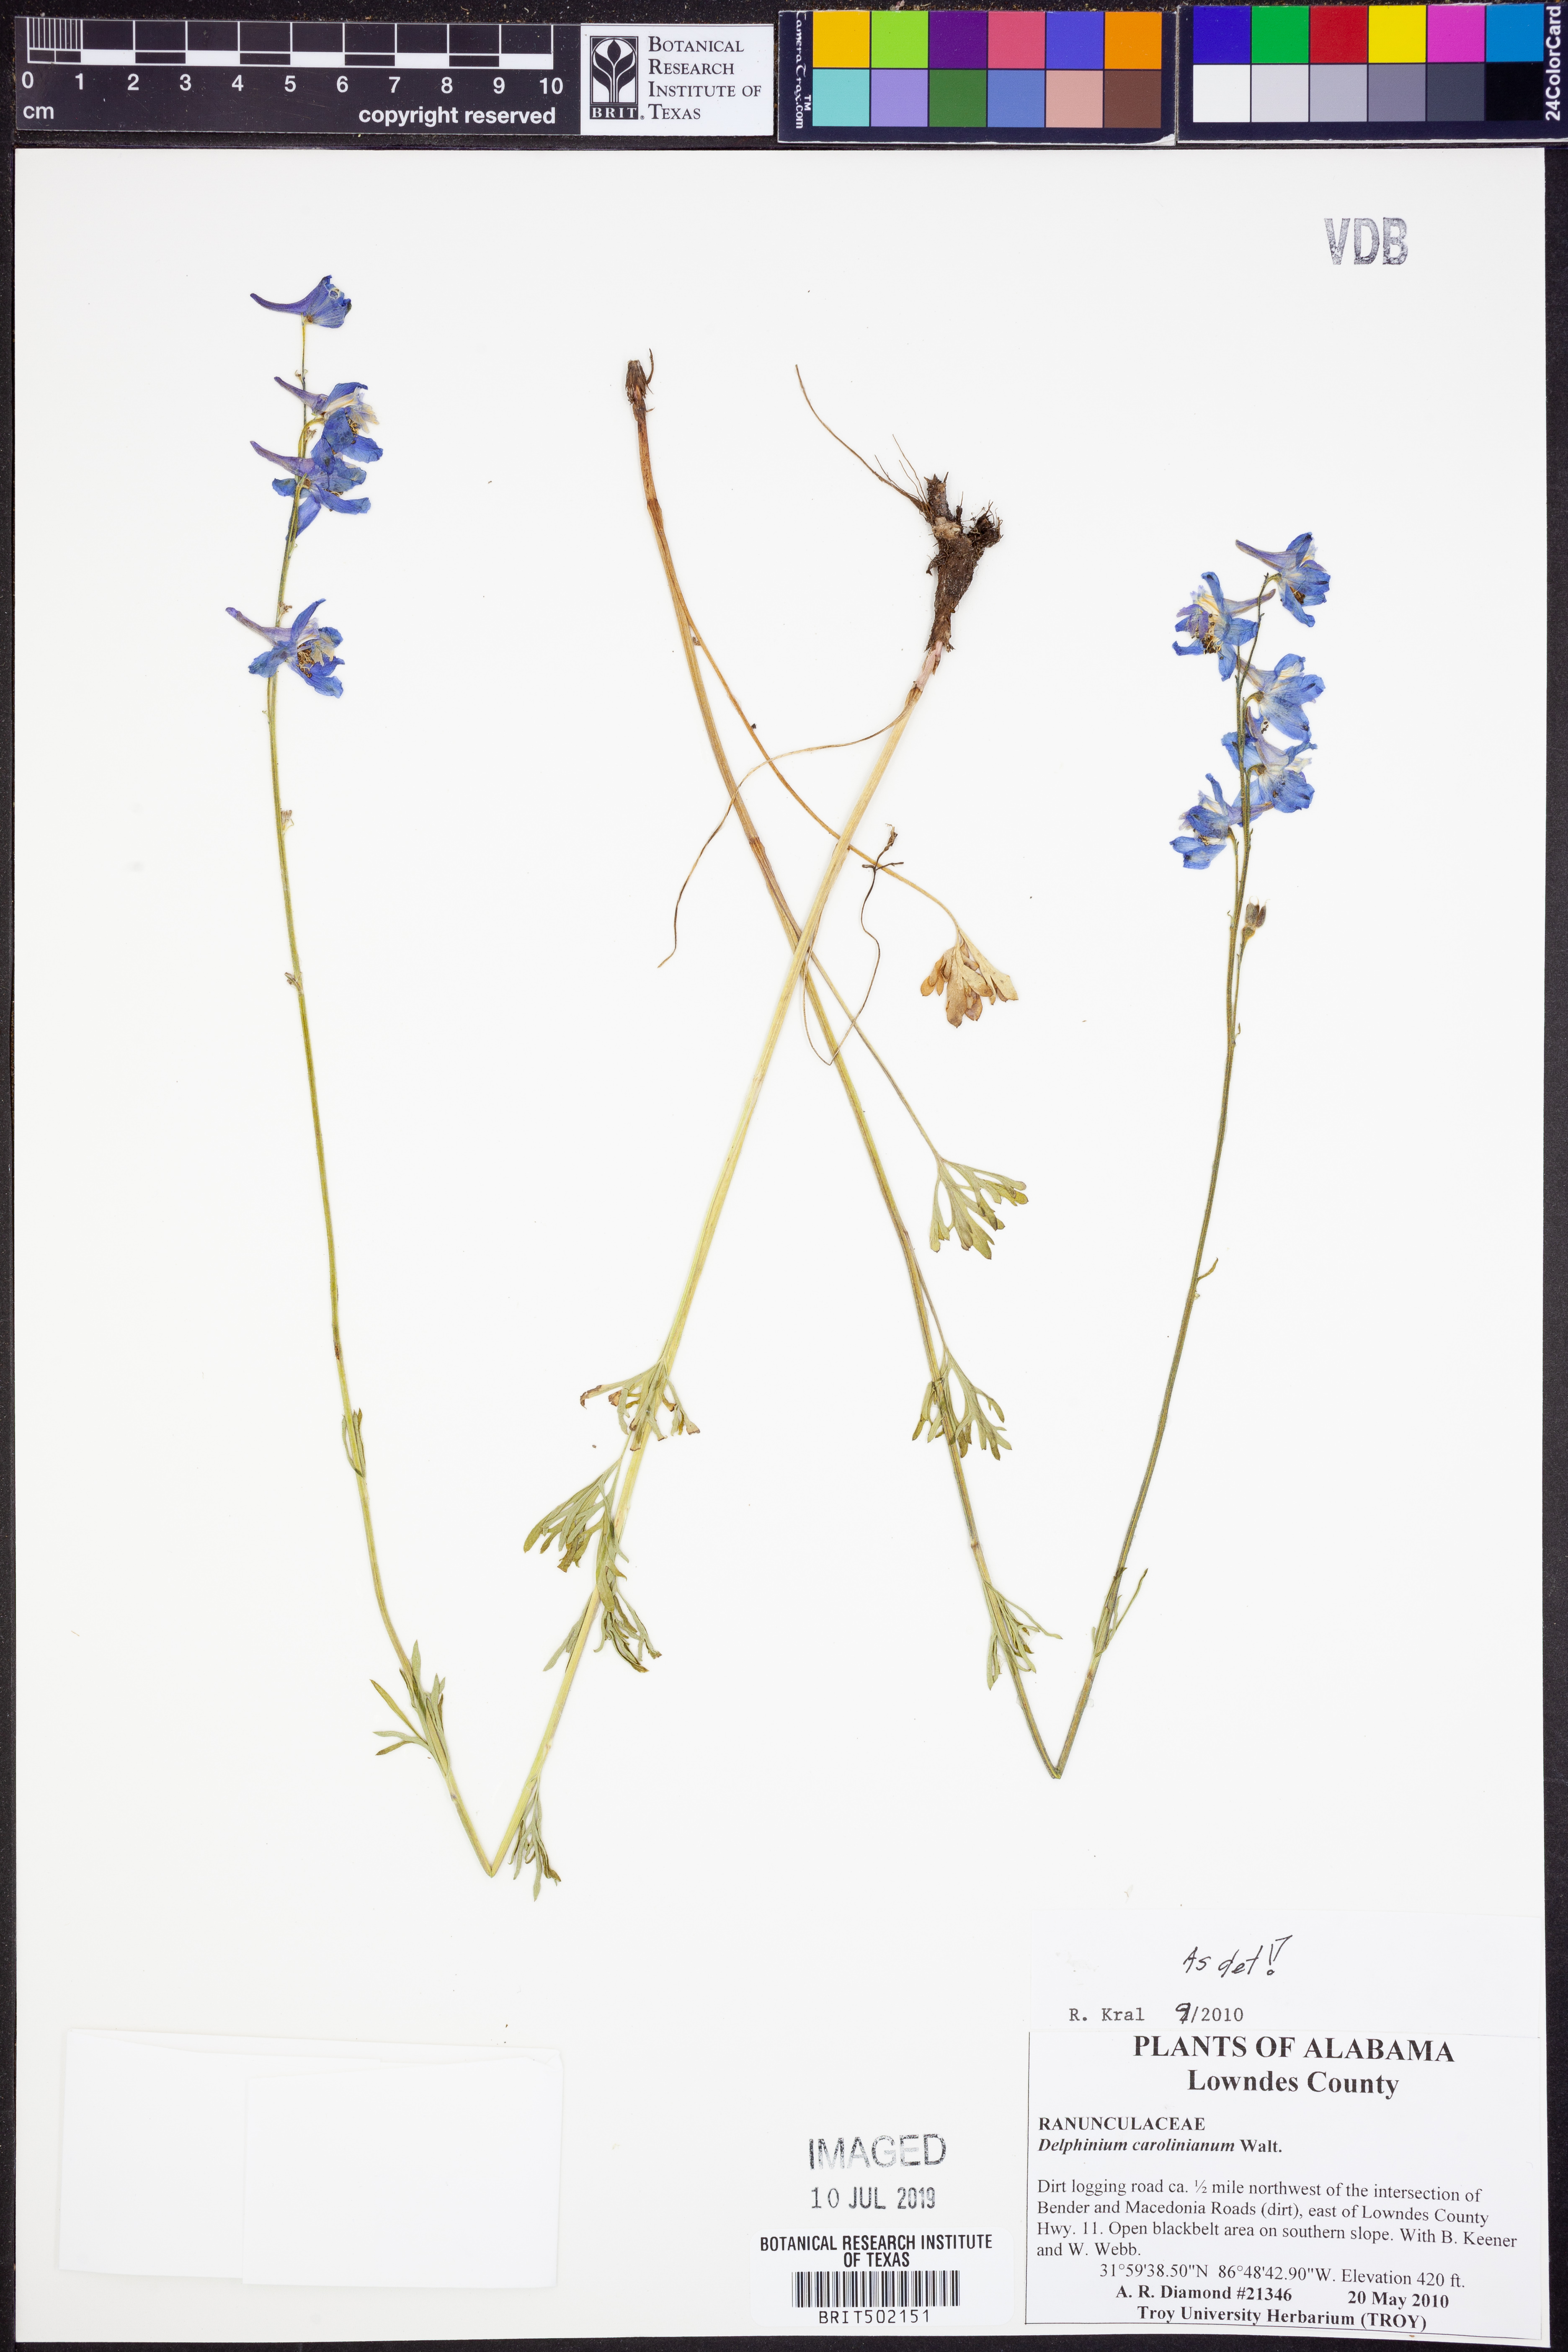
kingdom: Plantae
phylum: Tracheophyta
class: Magnoliopsida
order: Ranunculales
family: Ranunculaceae
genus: Delphinium
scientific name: Delphinium carolinianum
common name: Carolina larkspur
